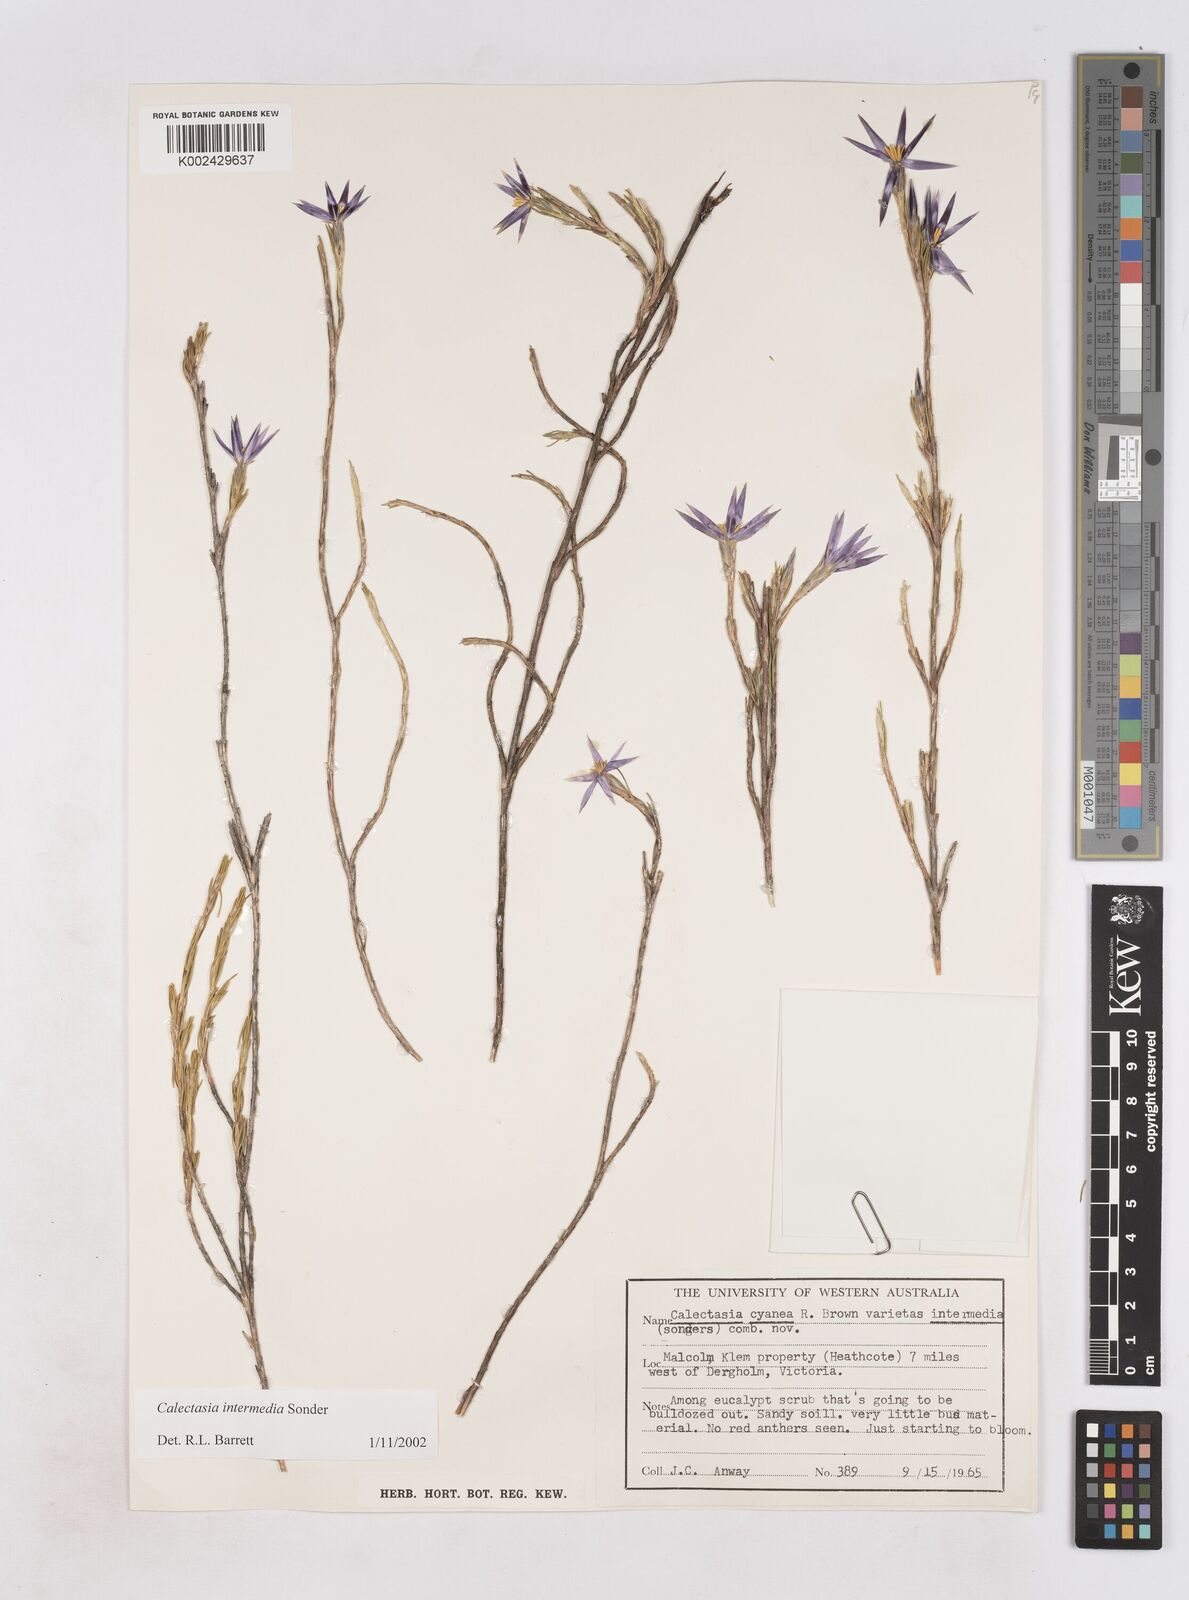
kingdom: Plantae
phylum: Tracheophyta
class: Liliopsida
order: Arecales
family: Dasypogonaceae
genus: Calectasia
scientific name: Calectasia intermedia
